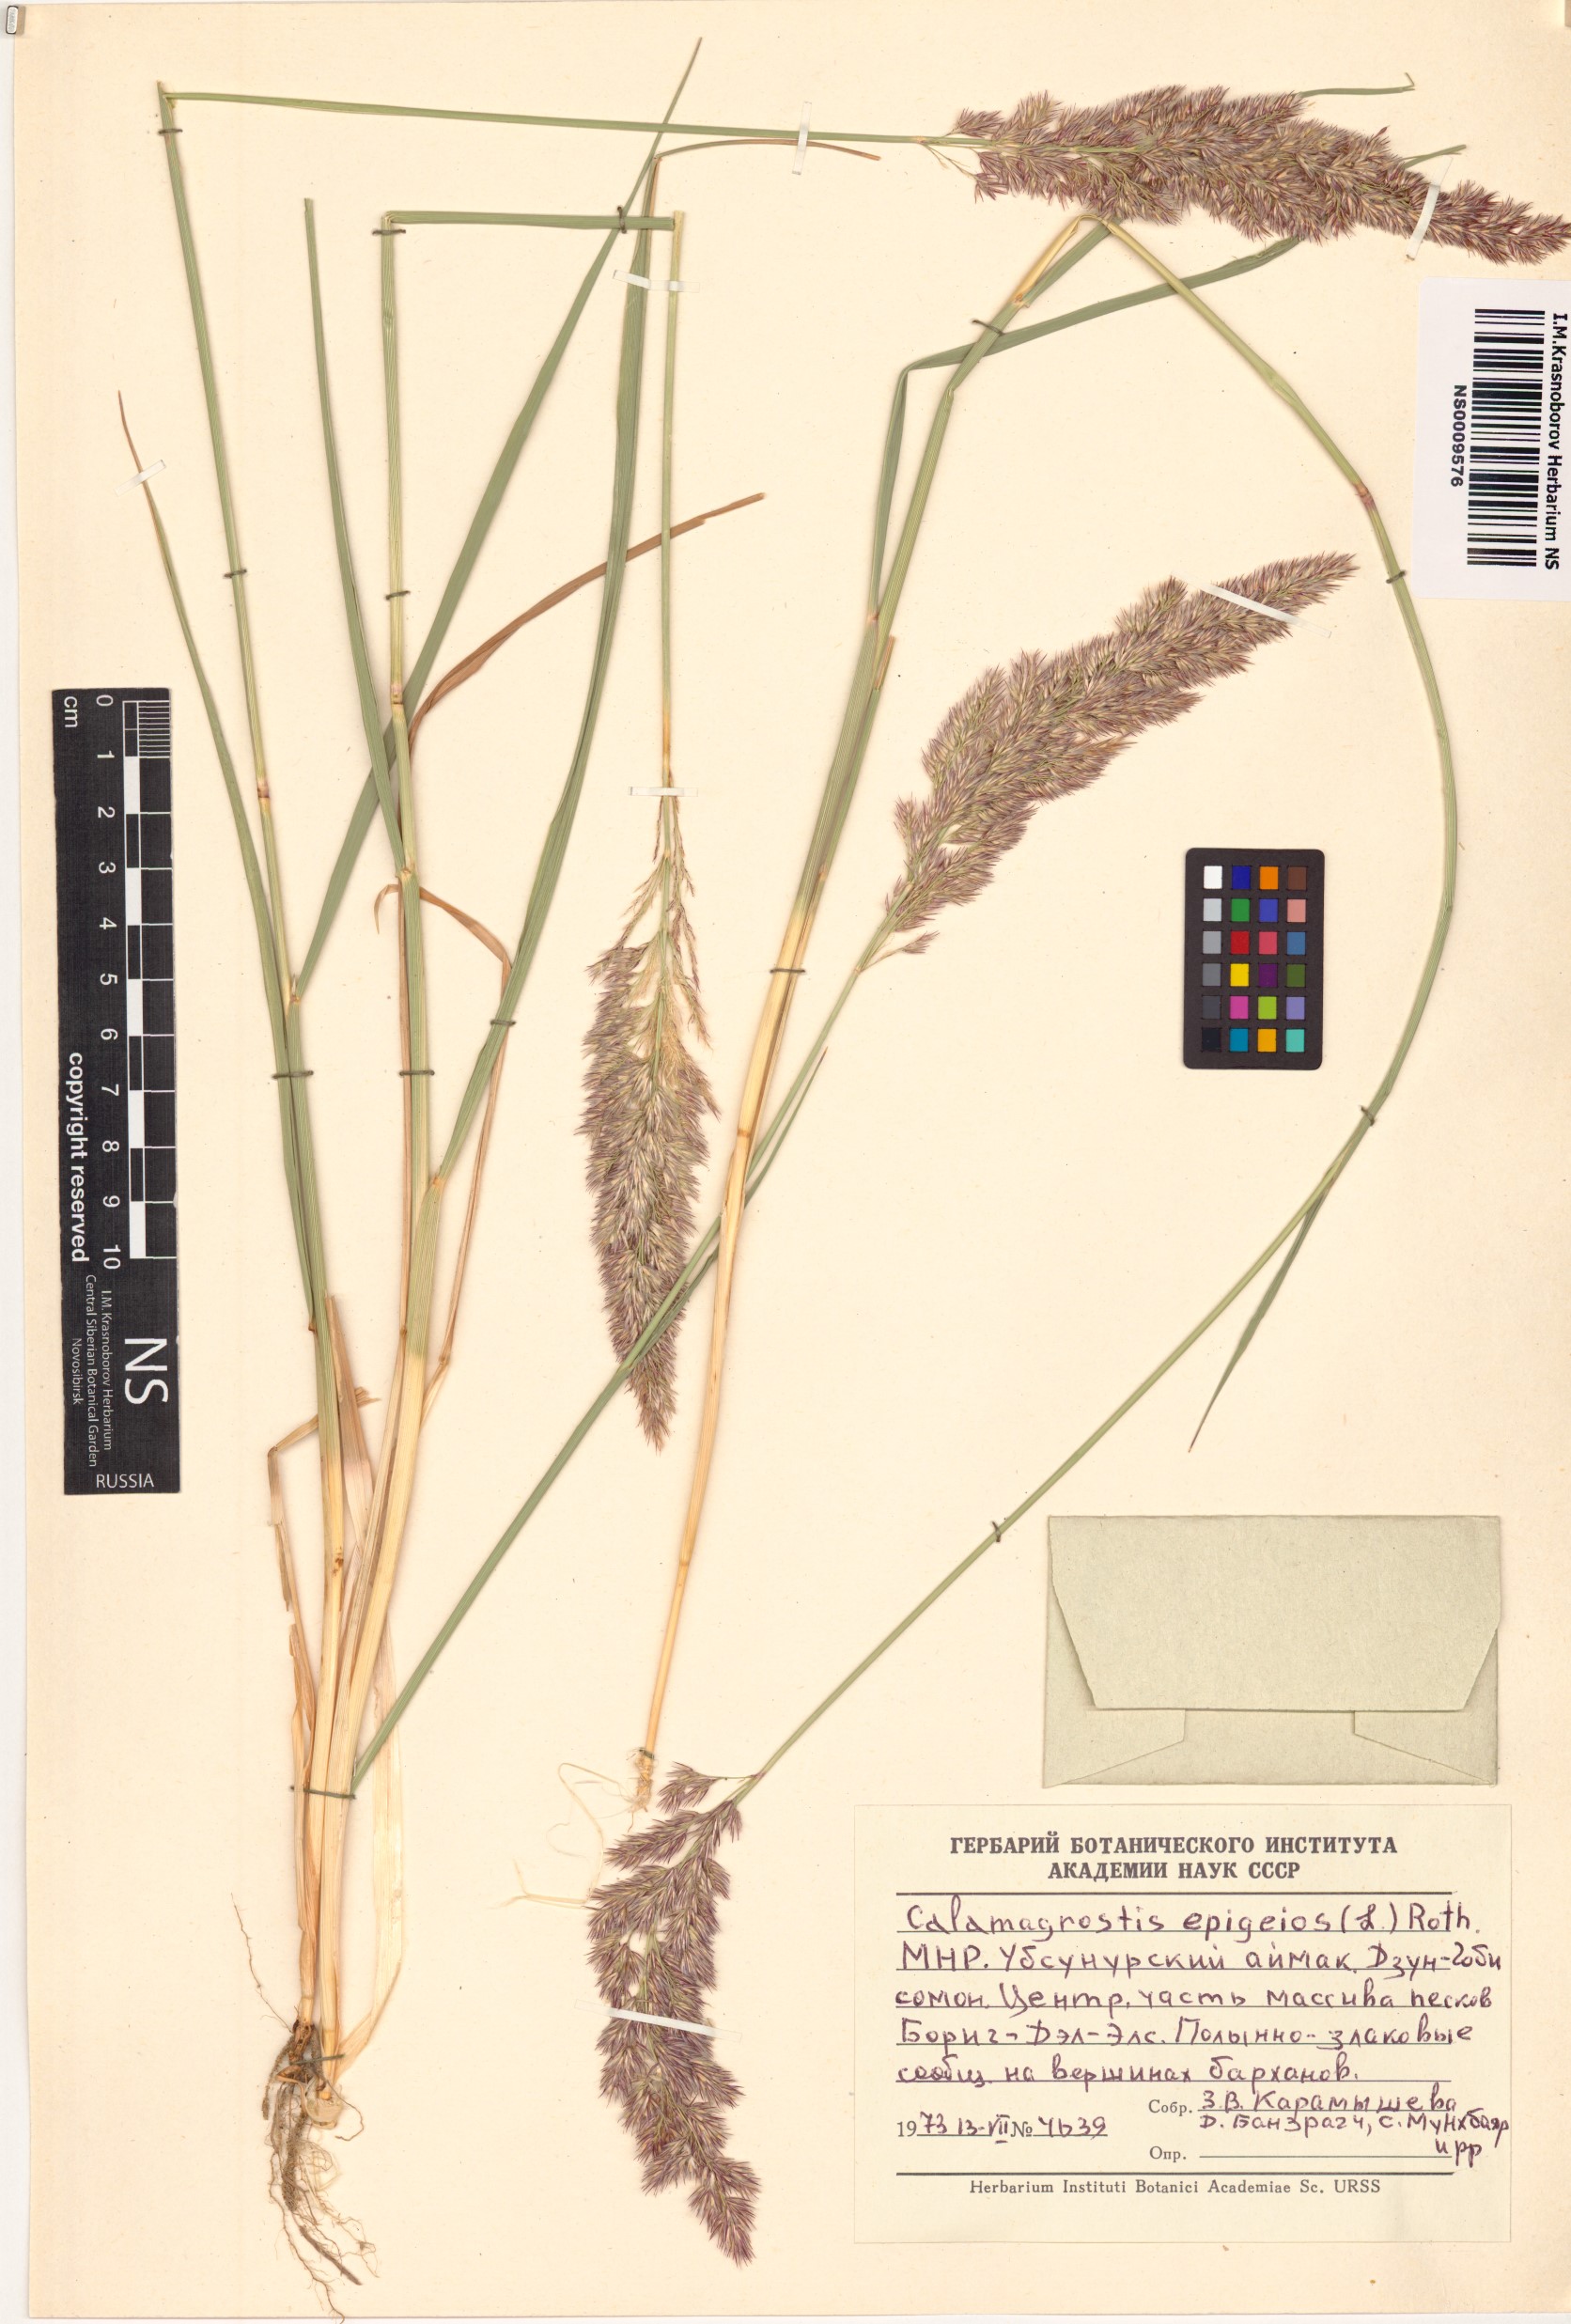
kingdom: Plantae
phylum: Tracheophyta
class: Liliopsida
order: Poales
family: Poaceae
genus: Calamagrostis
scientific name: Calamagrostis epigejos
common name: Wood small-reed
